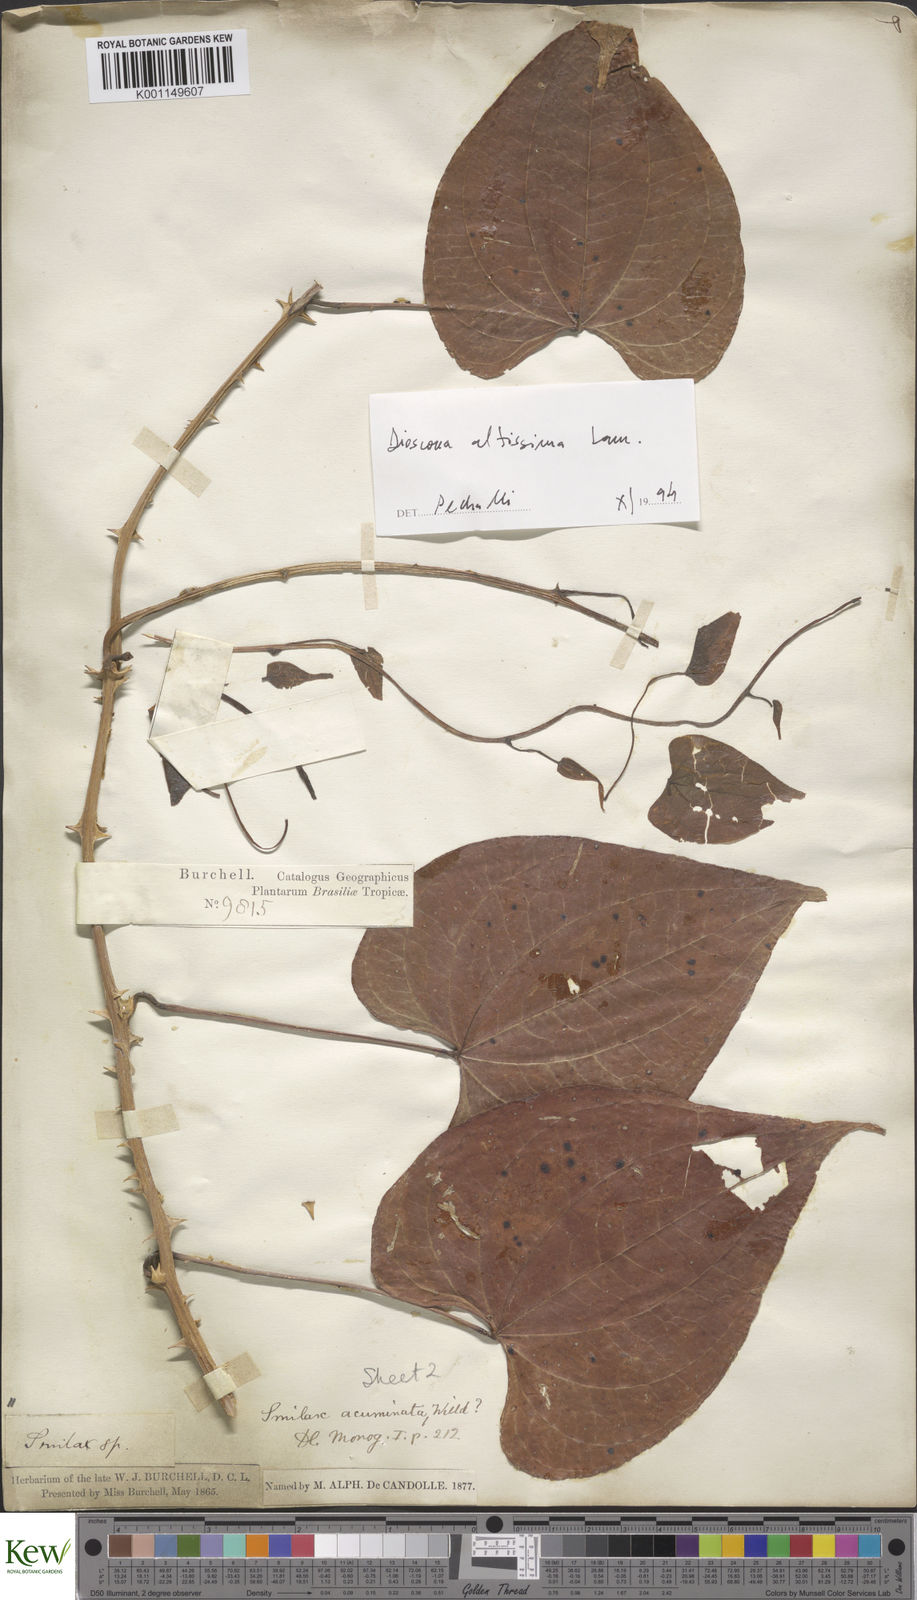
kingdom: Plantae
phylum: Tracheophyta
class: Liliopsida
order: Dioscoreales
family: Dioscoreaceae
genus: Dioscorea
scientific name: Dioscorea chondrocarpa
